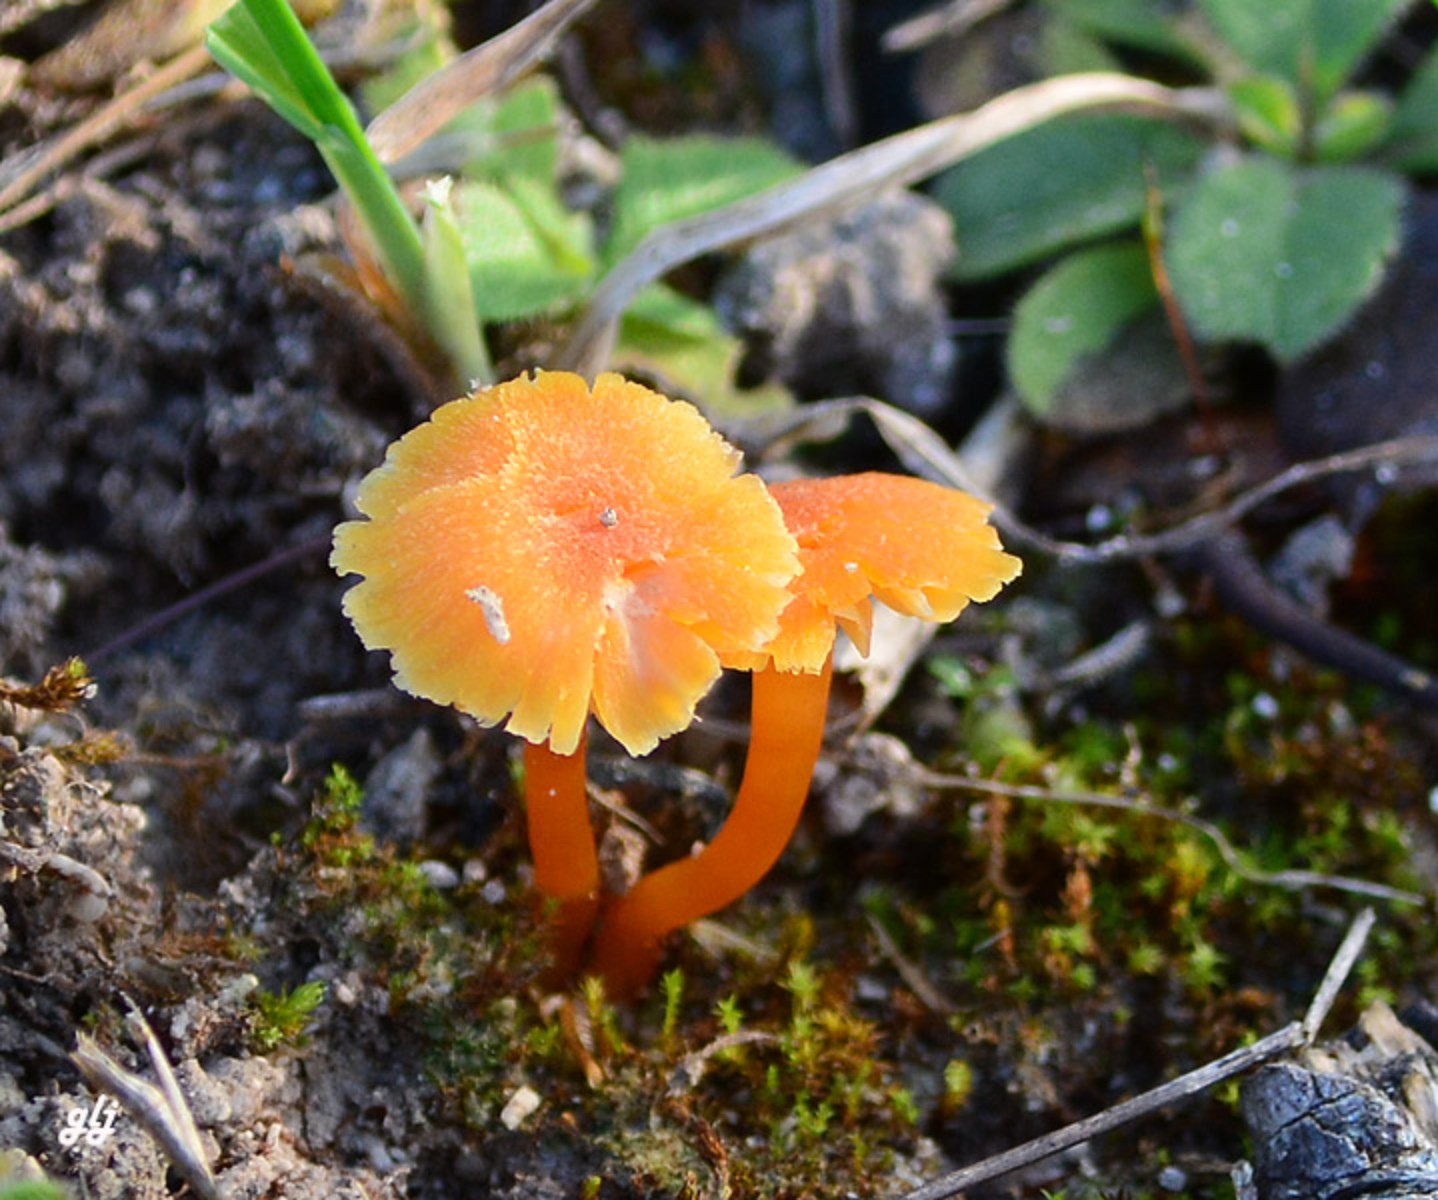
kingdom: Fungi
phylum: Basidiomycota
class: Agaricomycetes
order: Agaricales
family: Hygrophoraceae
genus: Hygrocybe
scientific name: Hygrocybe
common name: vokshat
